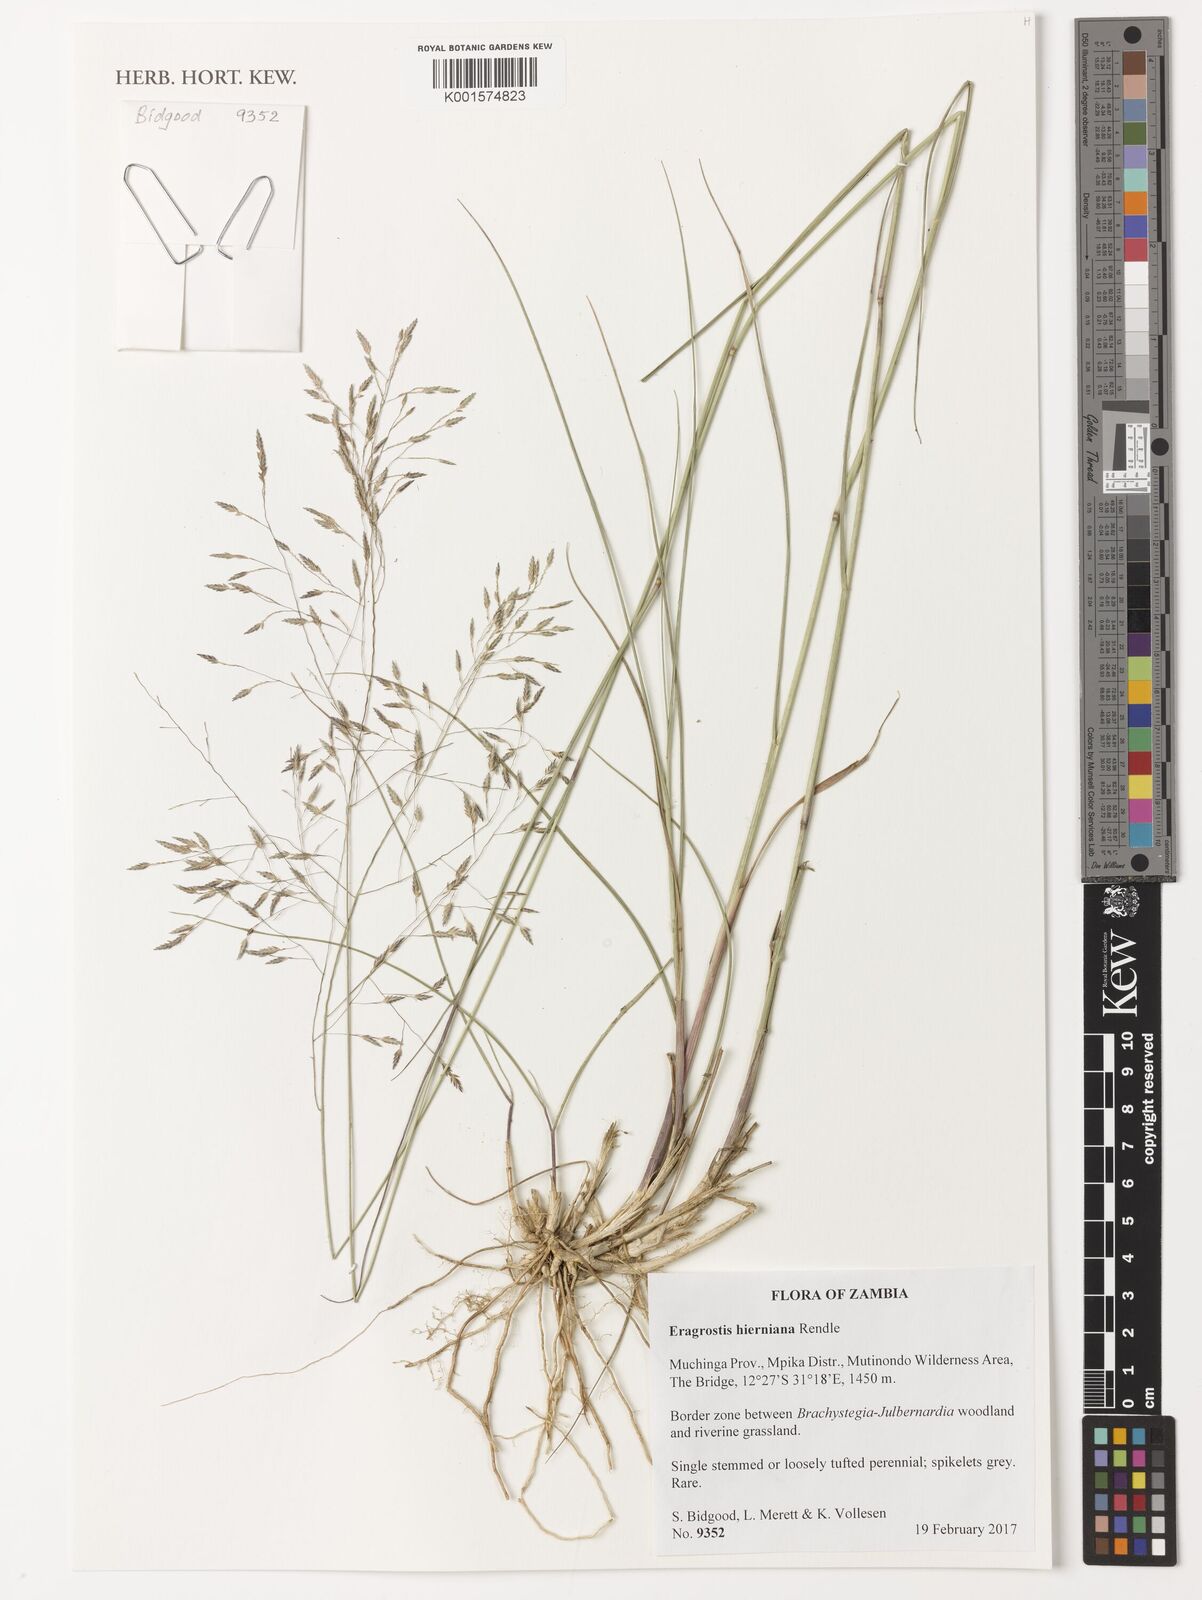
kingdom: Plantae
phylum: Tracheophyta
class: Liliopsida
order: Poales
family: Poaceae
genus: Eragrostis
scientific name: Eragrostis hierniana
